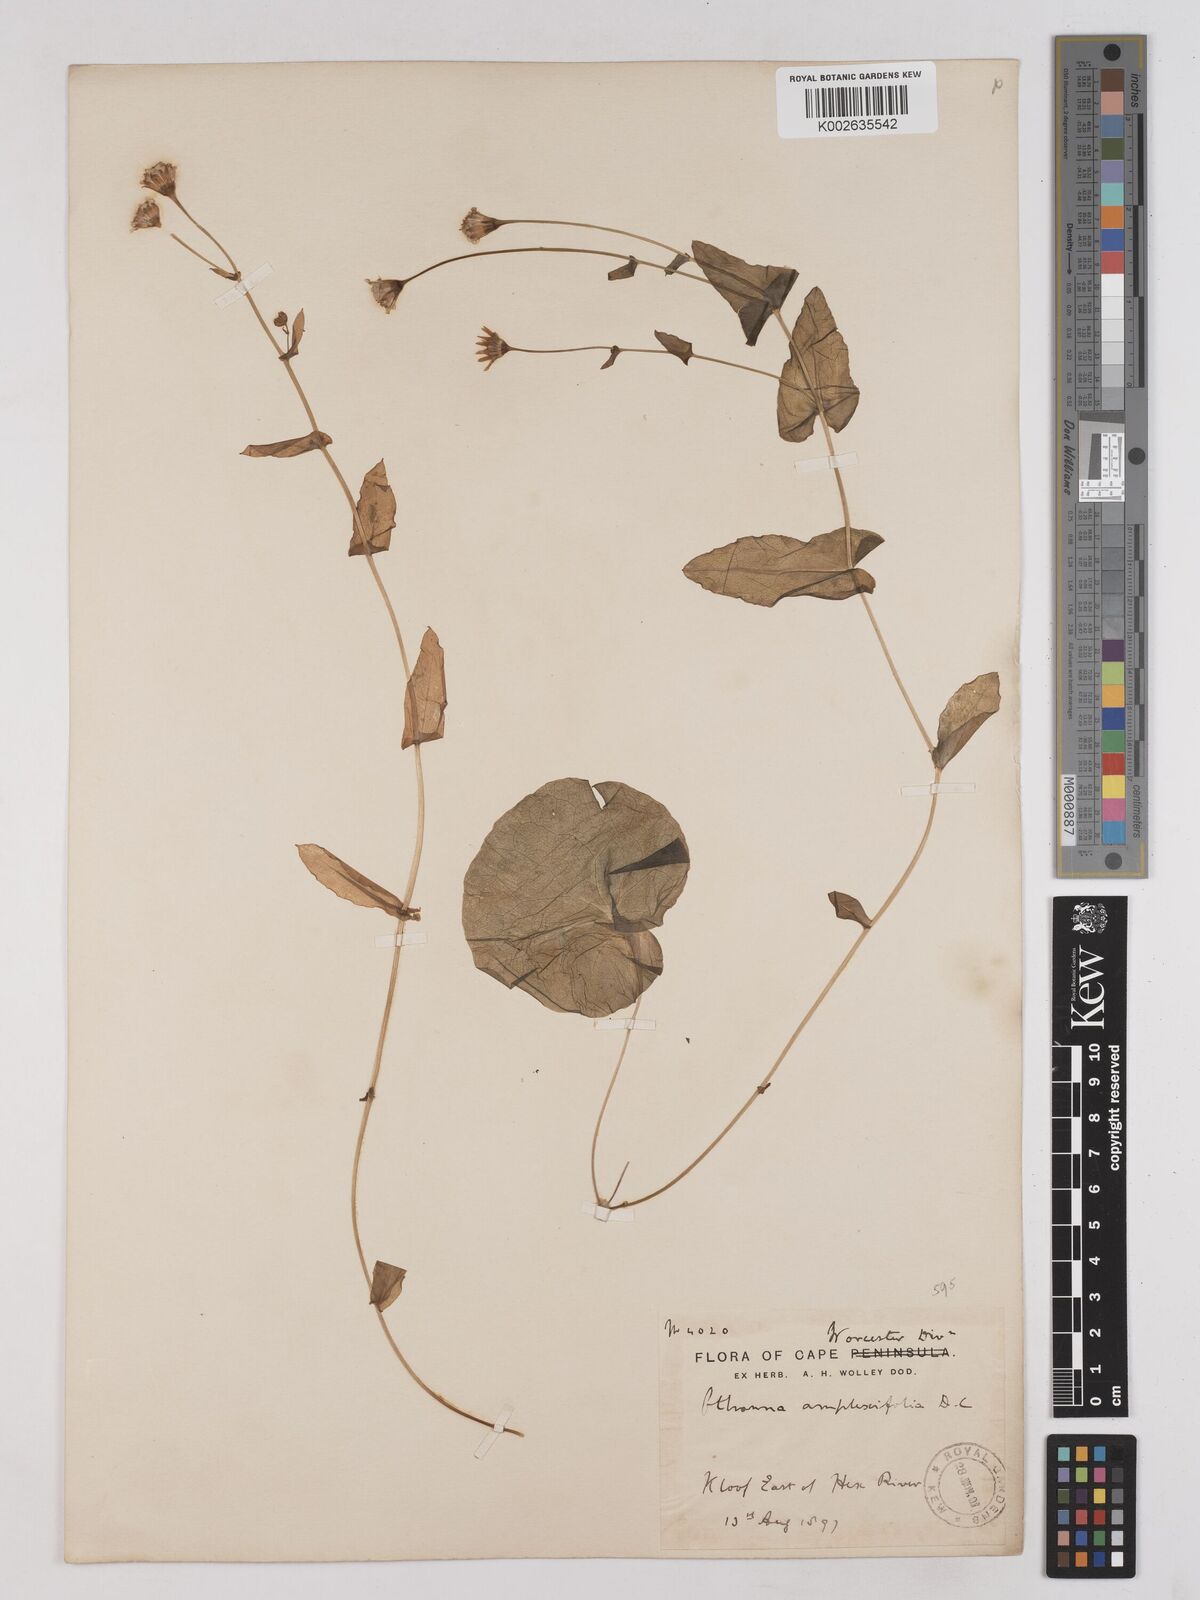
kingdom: Plantae
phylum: Tracheophyta
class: Magnoliopsida
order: Asterales
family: Asteraceae
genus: Othonna
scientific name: Othonna amplexifolia
